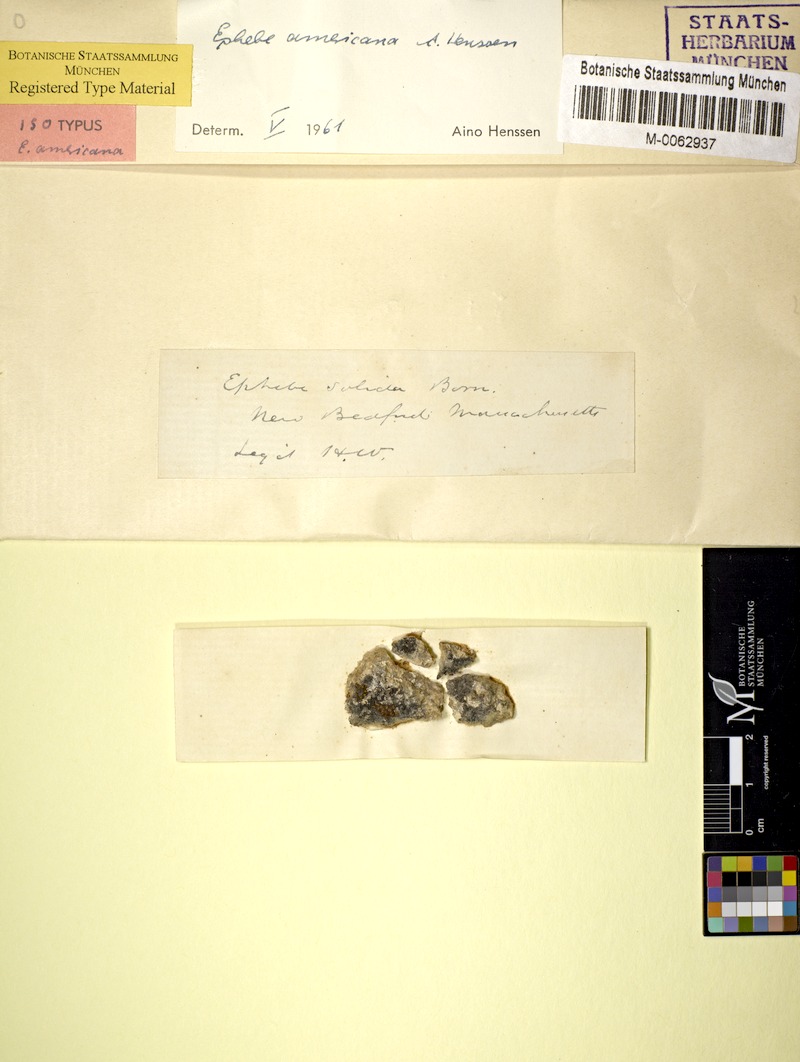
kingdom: Fungi
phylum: Ascomycota
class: Lichinomycetes
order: Lichinales
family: Lichinaceae
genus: Ephebe
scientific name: Ephebe americana
